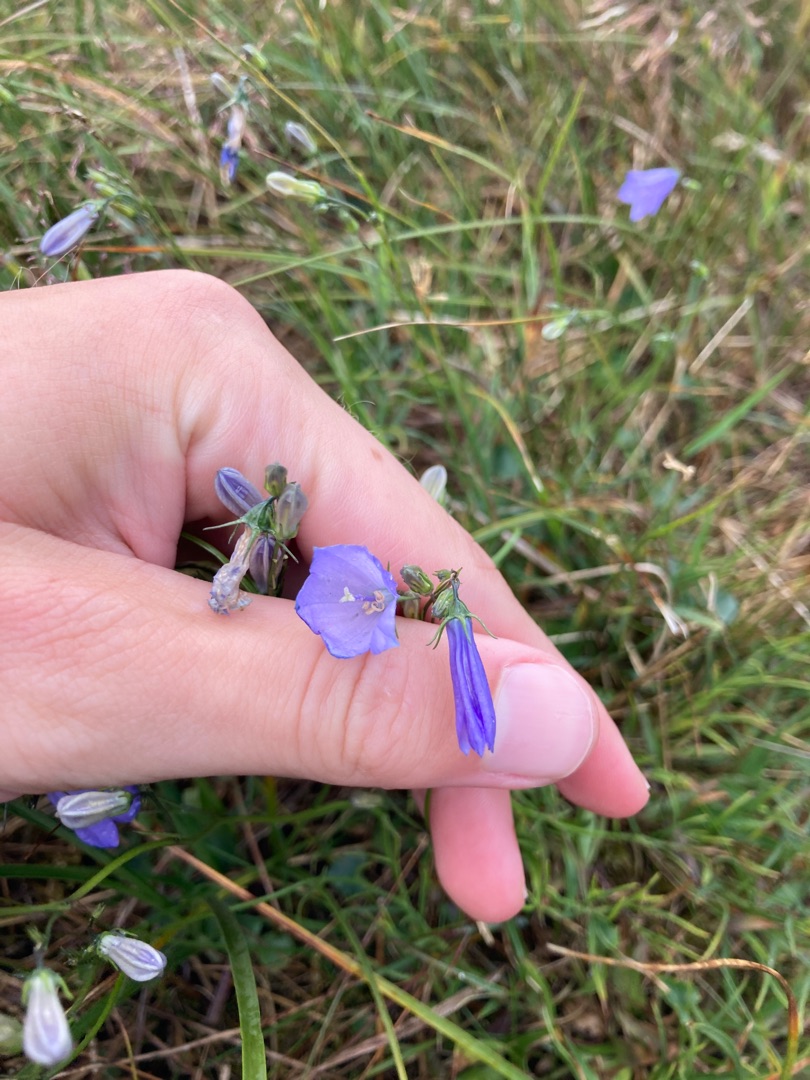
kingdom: Plantae
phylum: Tracheophyta
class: Magnoliopsida
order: Asterales
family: Campanulaceae
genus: Campanula
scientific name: Campanula rotundifolia
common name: Liden klokke
